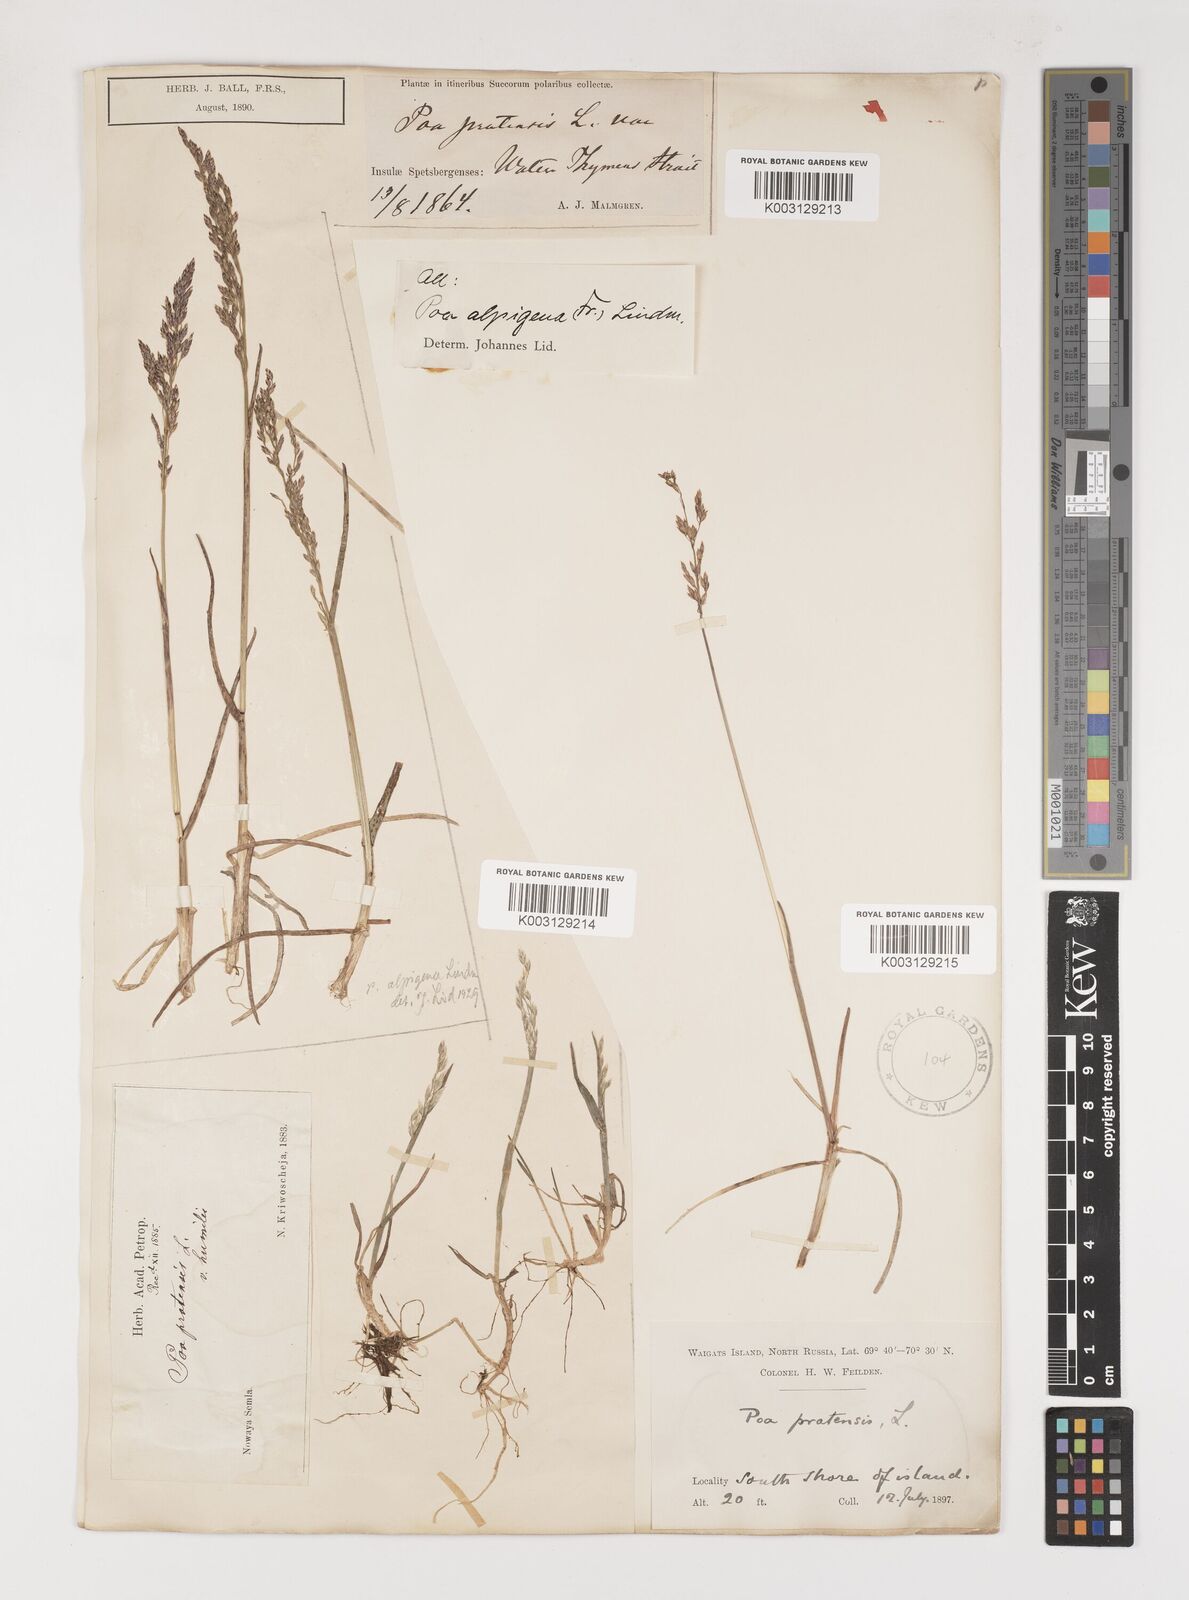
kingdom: Plantae
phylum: Tracheophyta
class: Liliopsida
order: Poales
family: Poaceae
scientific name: Poaceae
